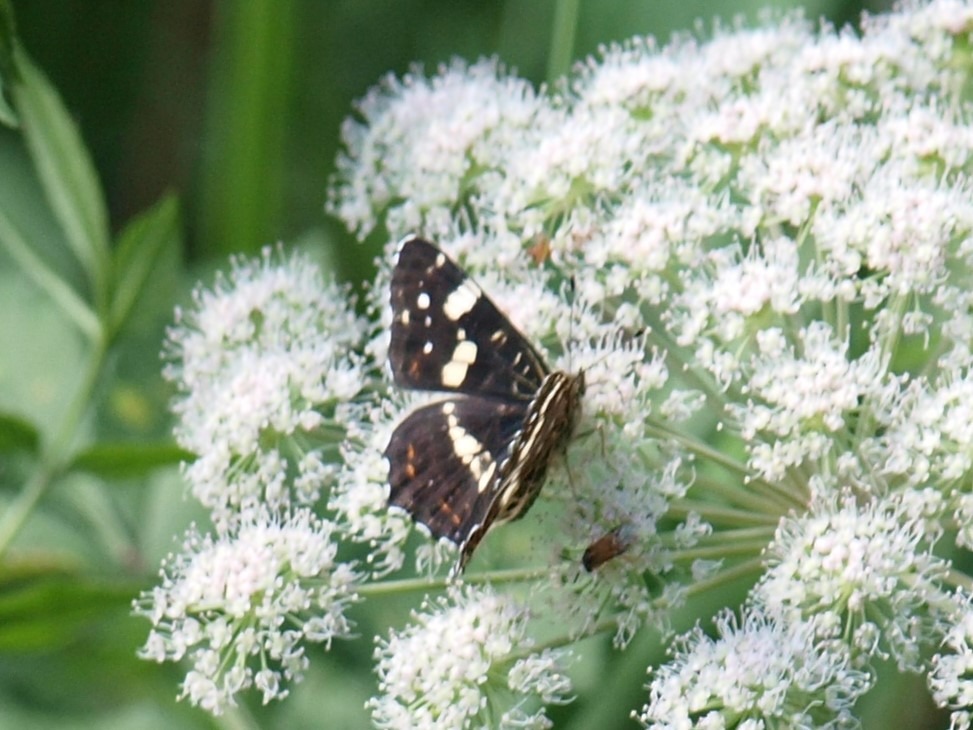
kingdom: Animalia
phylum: Arthropoda
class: Insecta
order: Lepidoptera
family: Nymphalidae
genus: Araschnia
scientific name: Araschnia levana
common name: Nældesommerfugl
